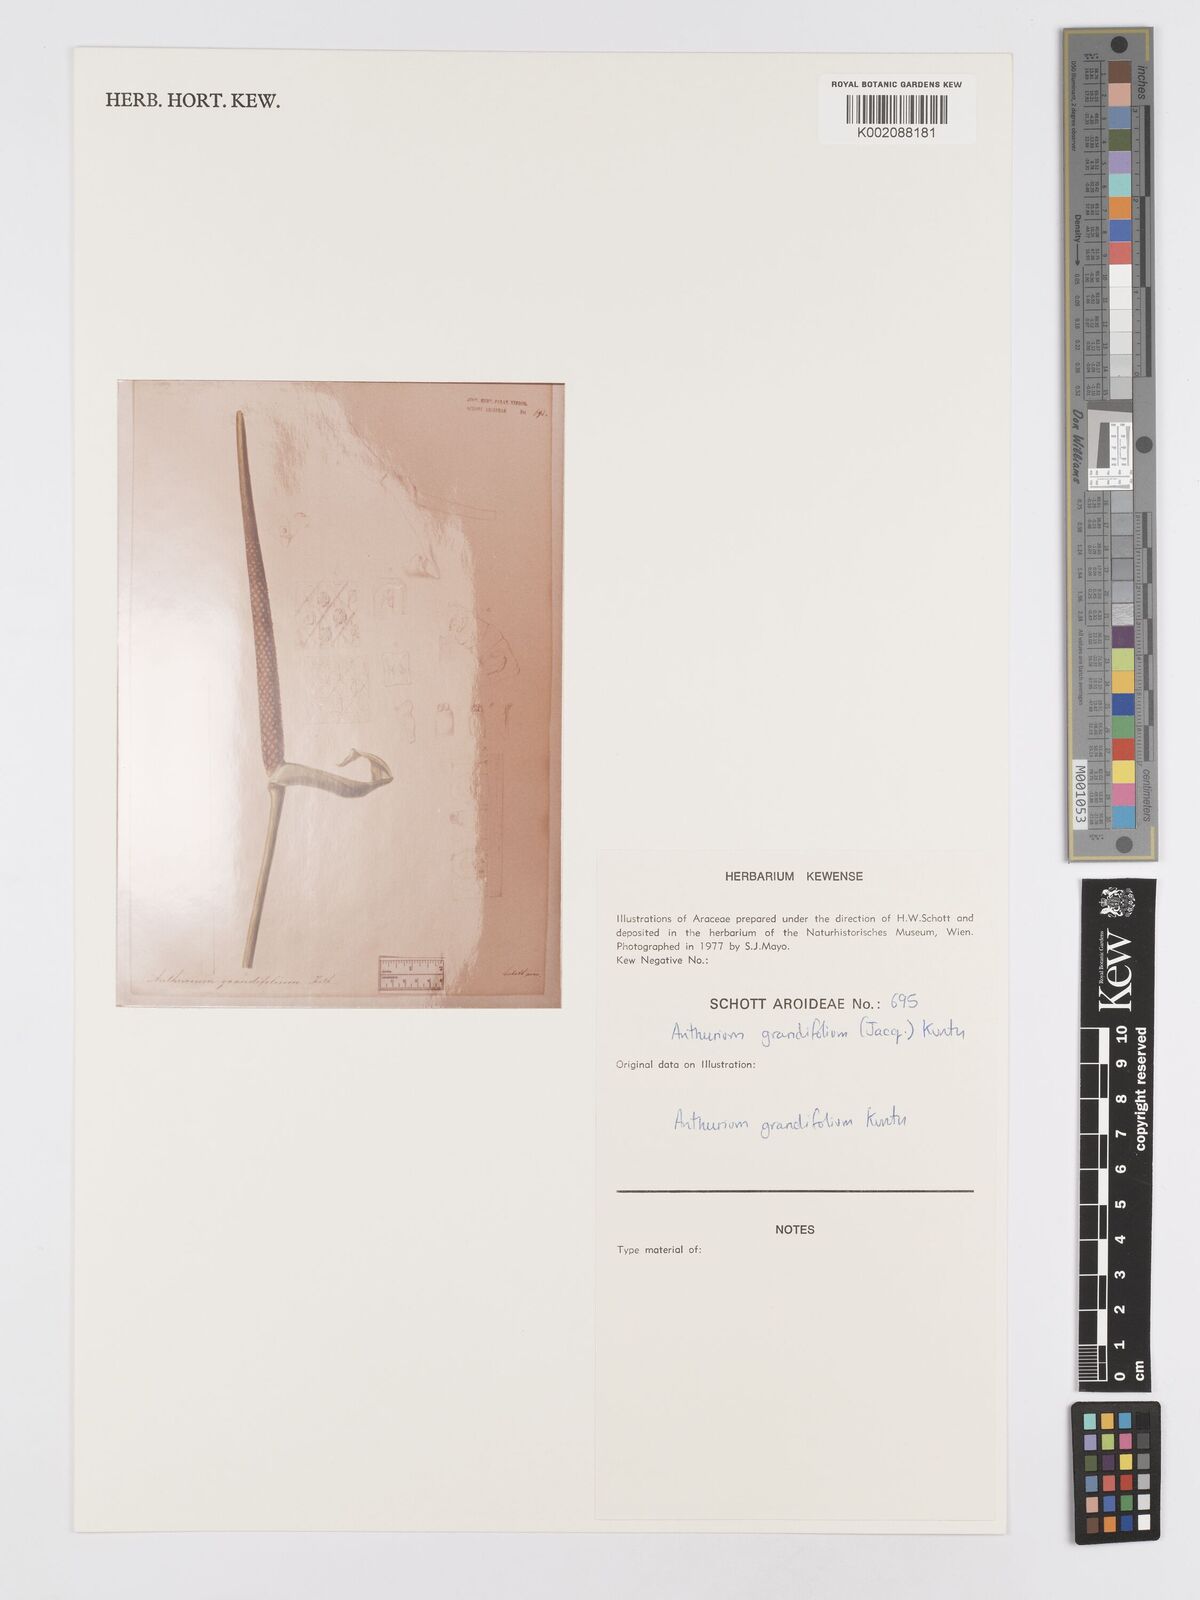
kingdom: Plantae
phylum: Tracheophyta
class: Liliopsida
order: Alismatales
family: Araceae
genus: Anthurium
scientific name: Anthurium grandifolium
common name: Monkey tail
